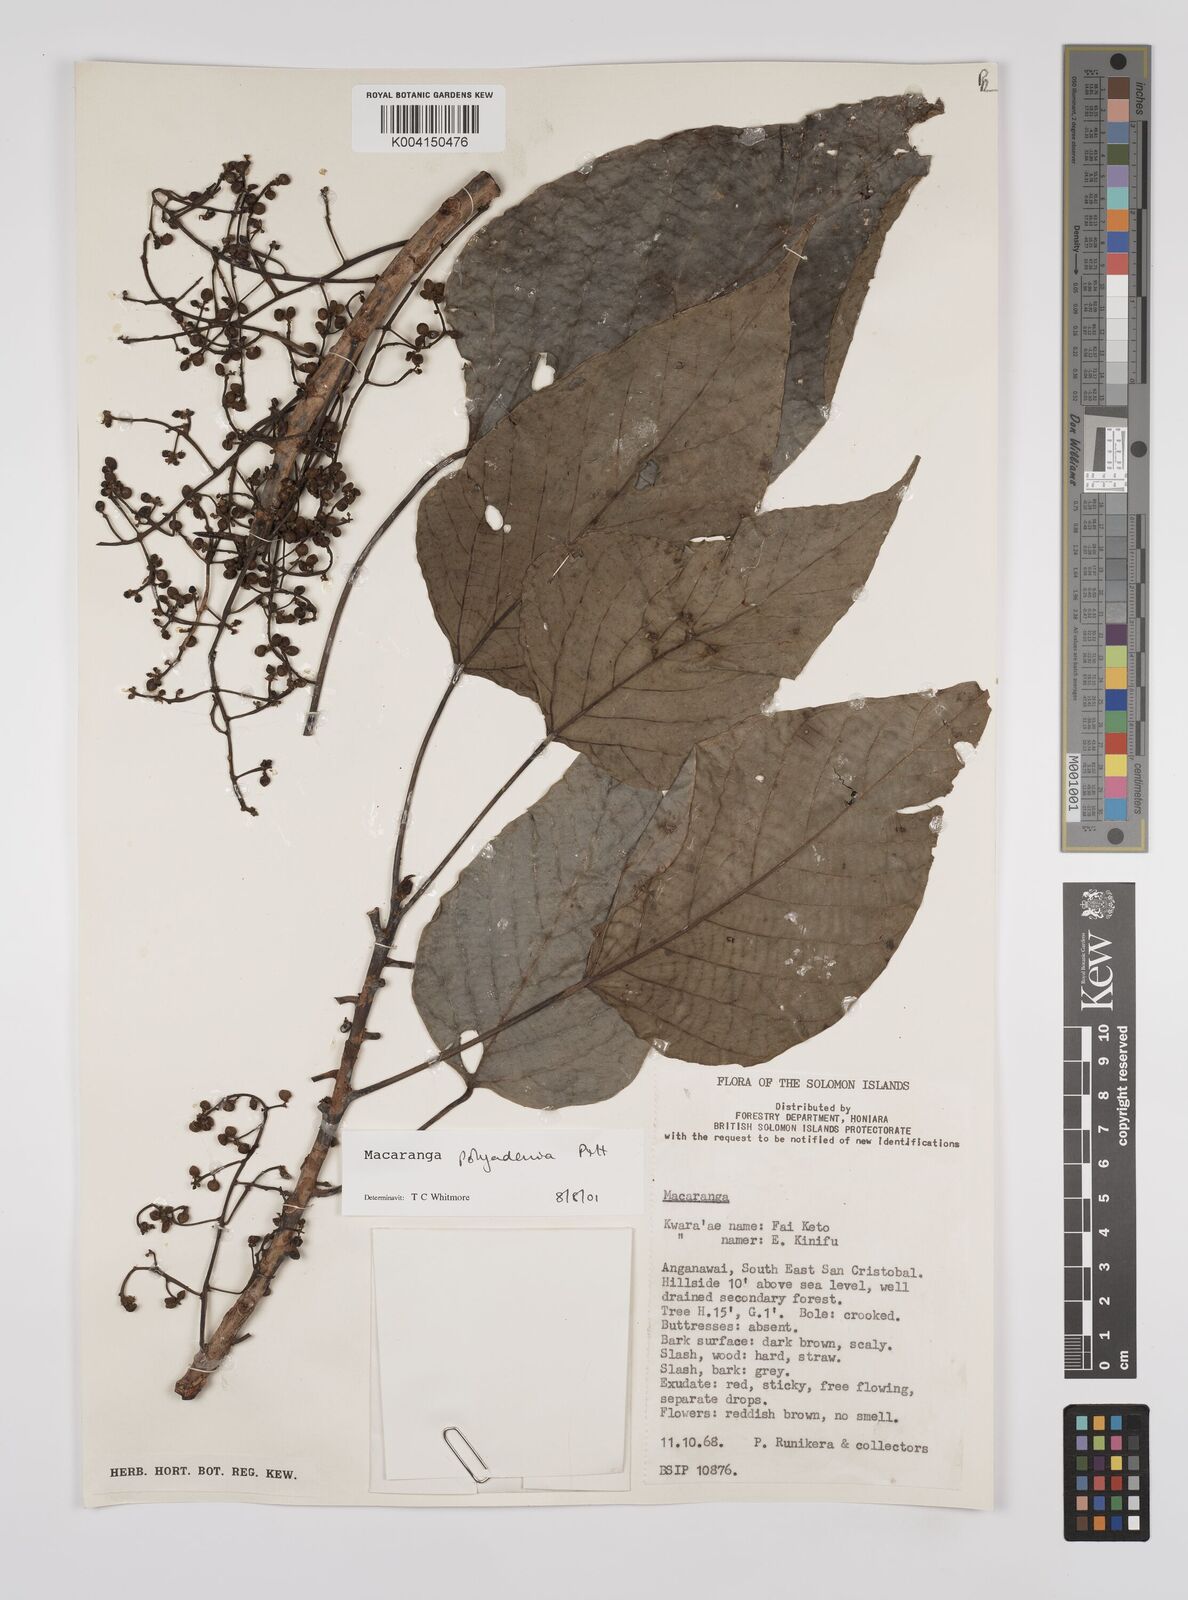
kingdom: Plantae
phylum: Tracheophyta
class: Magnoliopsida
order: Malpighiales
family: Euphorbiaceae
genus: Macaranga
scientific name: Macaranga polyadenia
